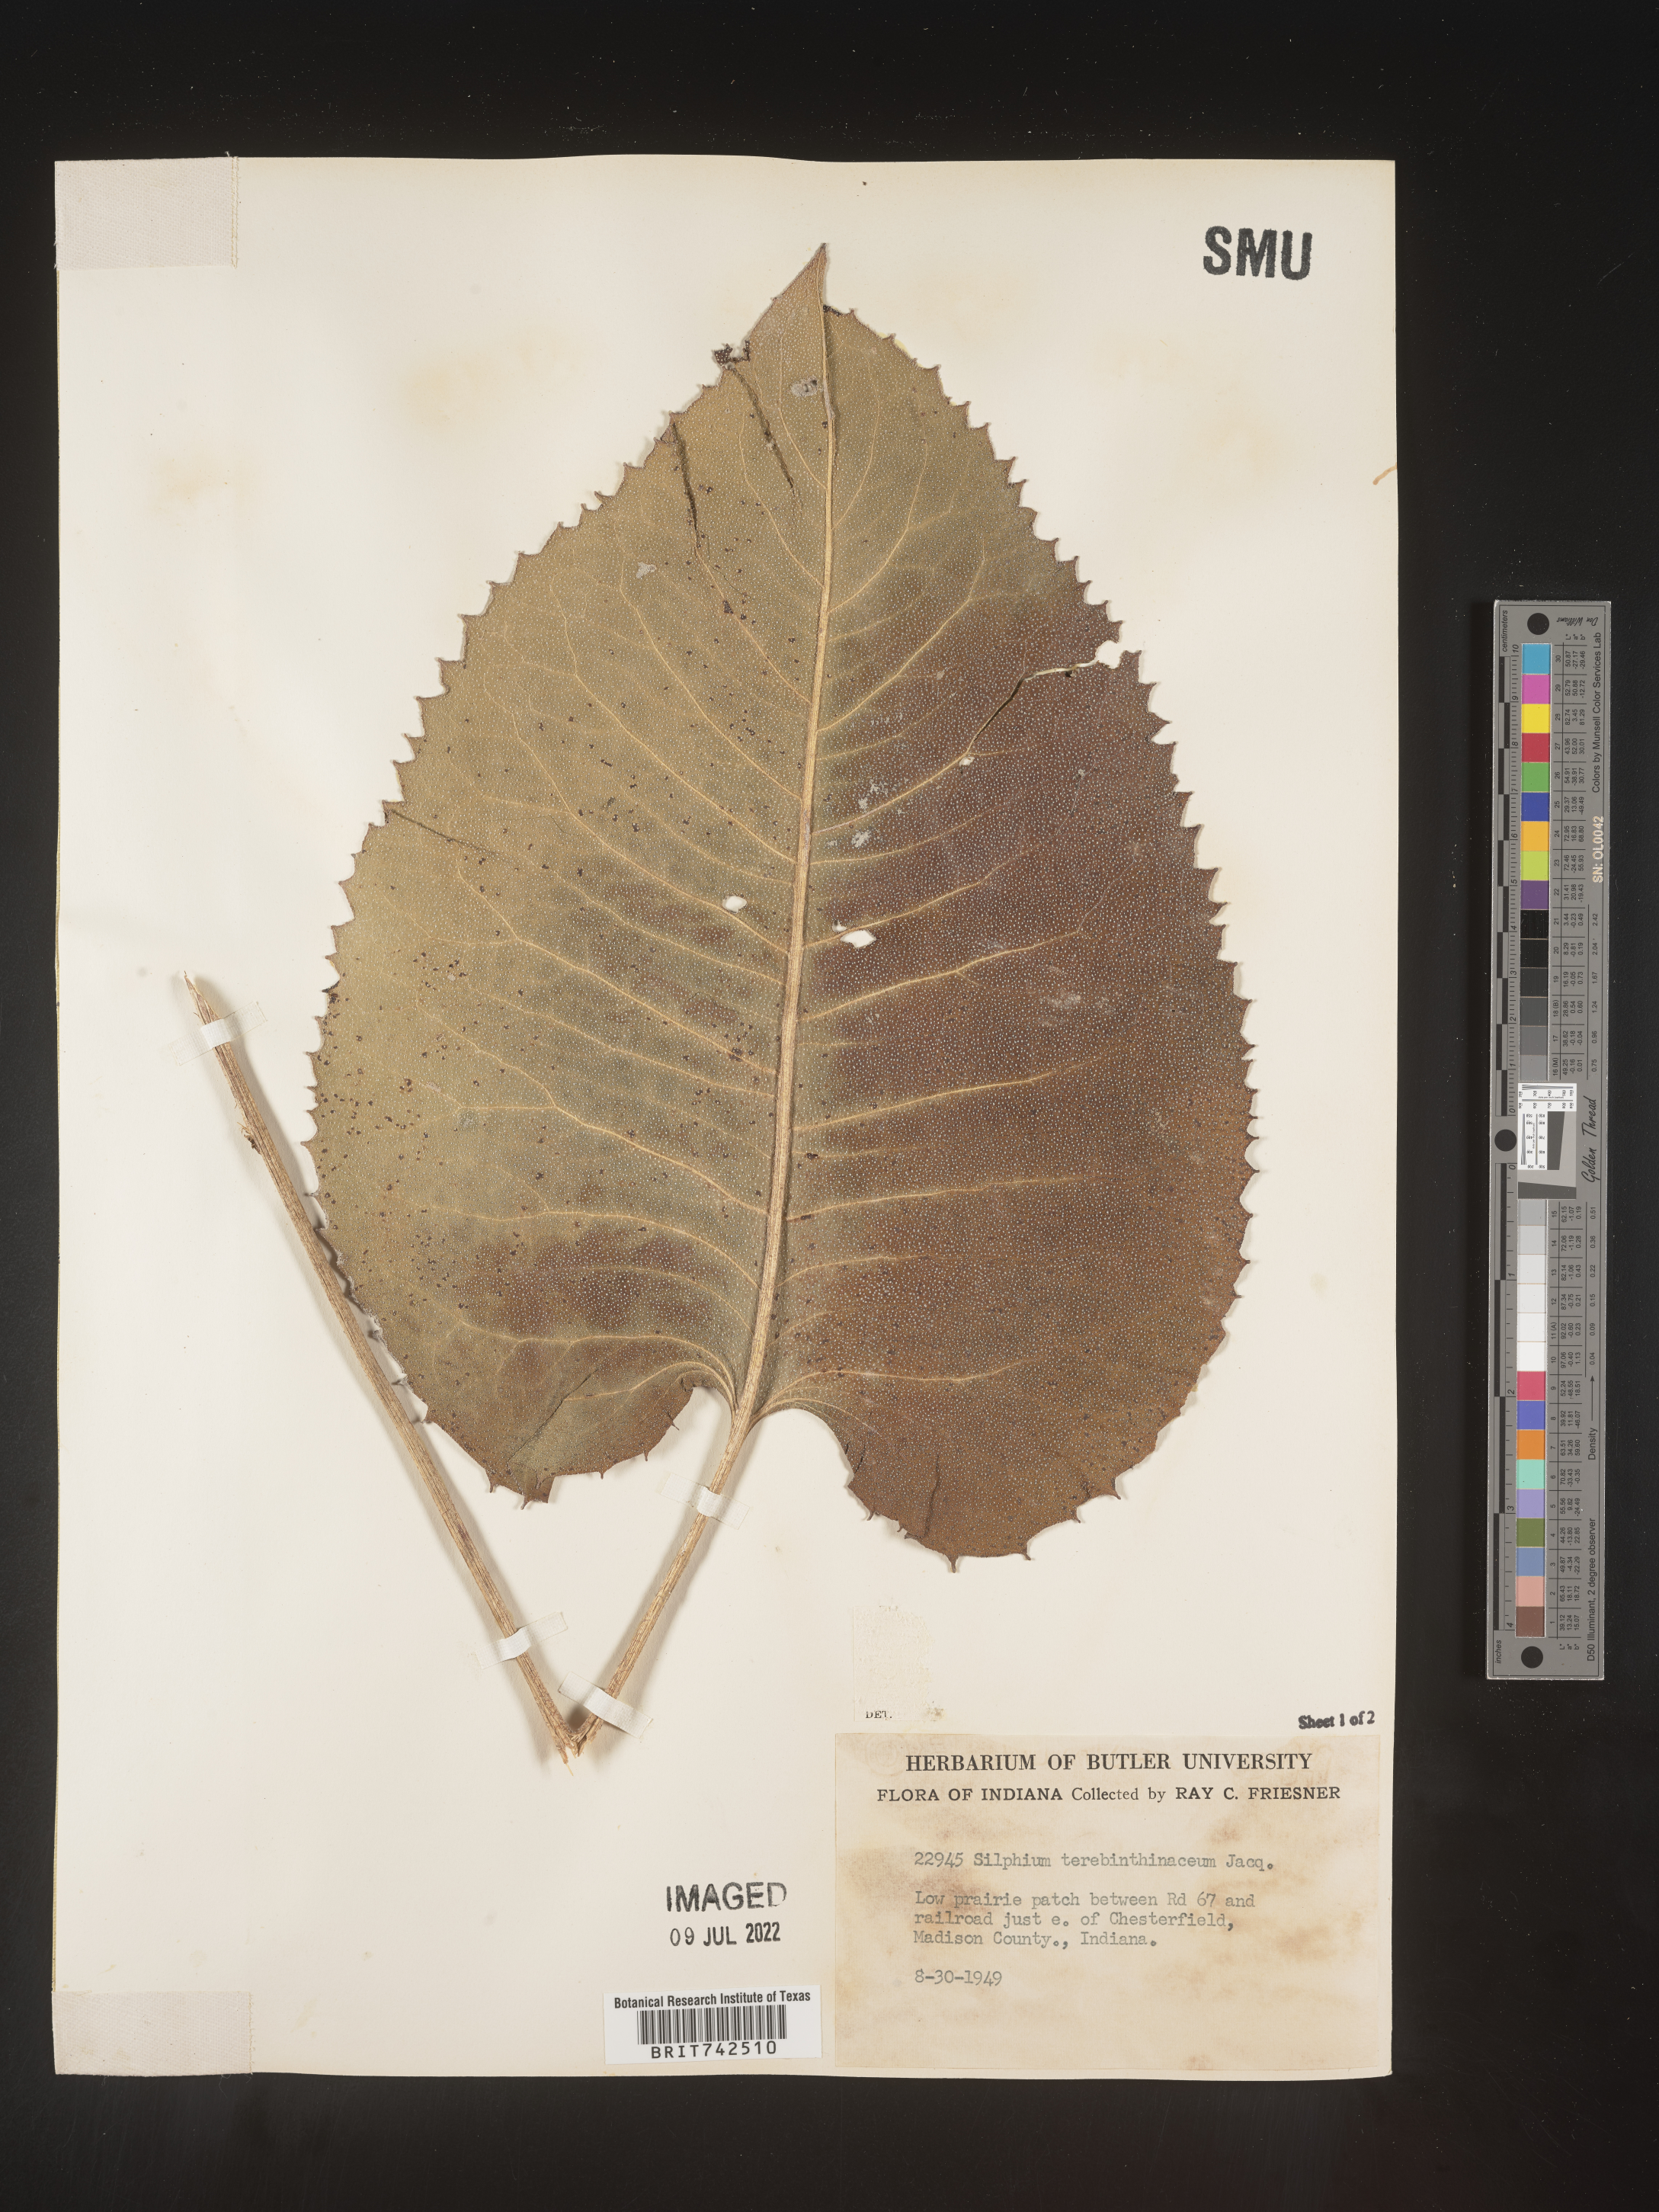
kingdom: Plantae
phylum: Tracheophyta
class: Magnoliopsida
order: Asterales
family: Asteraceae
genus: Silphium
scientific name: Silphium terebinthinaceum
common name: Basal-leaf rosinweed
